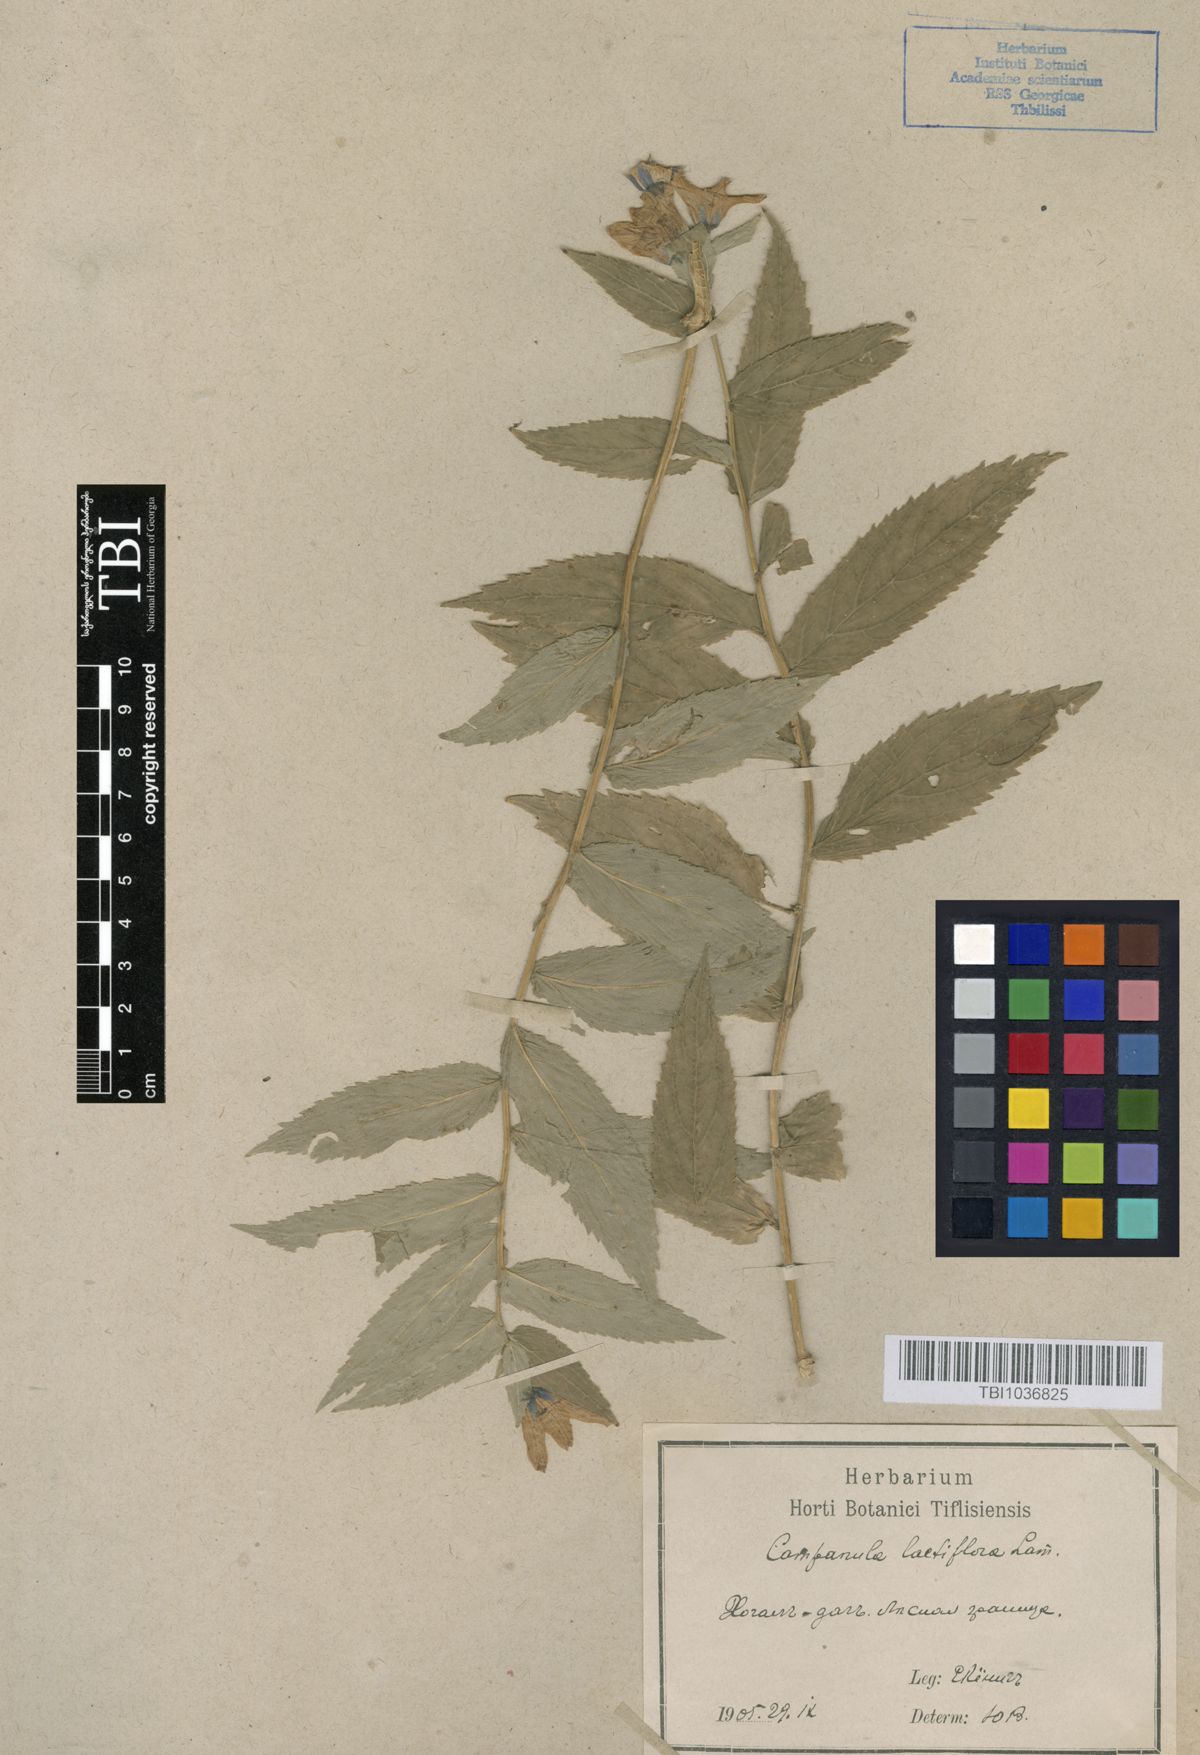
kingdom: Plantae
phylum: Tracheophyta
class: Magnoliopsida
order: Asterales
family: Campanulaceae
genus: Campanula
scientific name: Campanula lactiflora
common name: Milky bellflower
